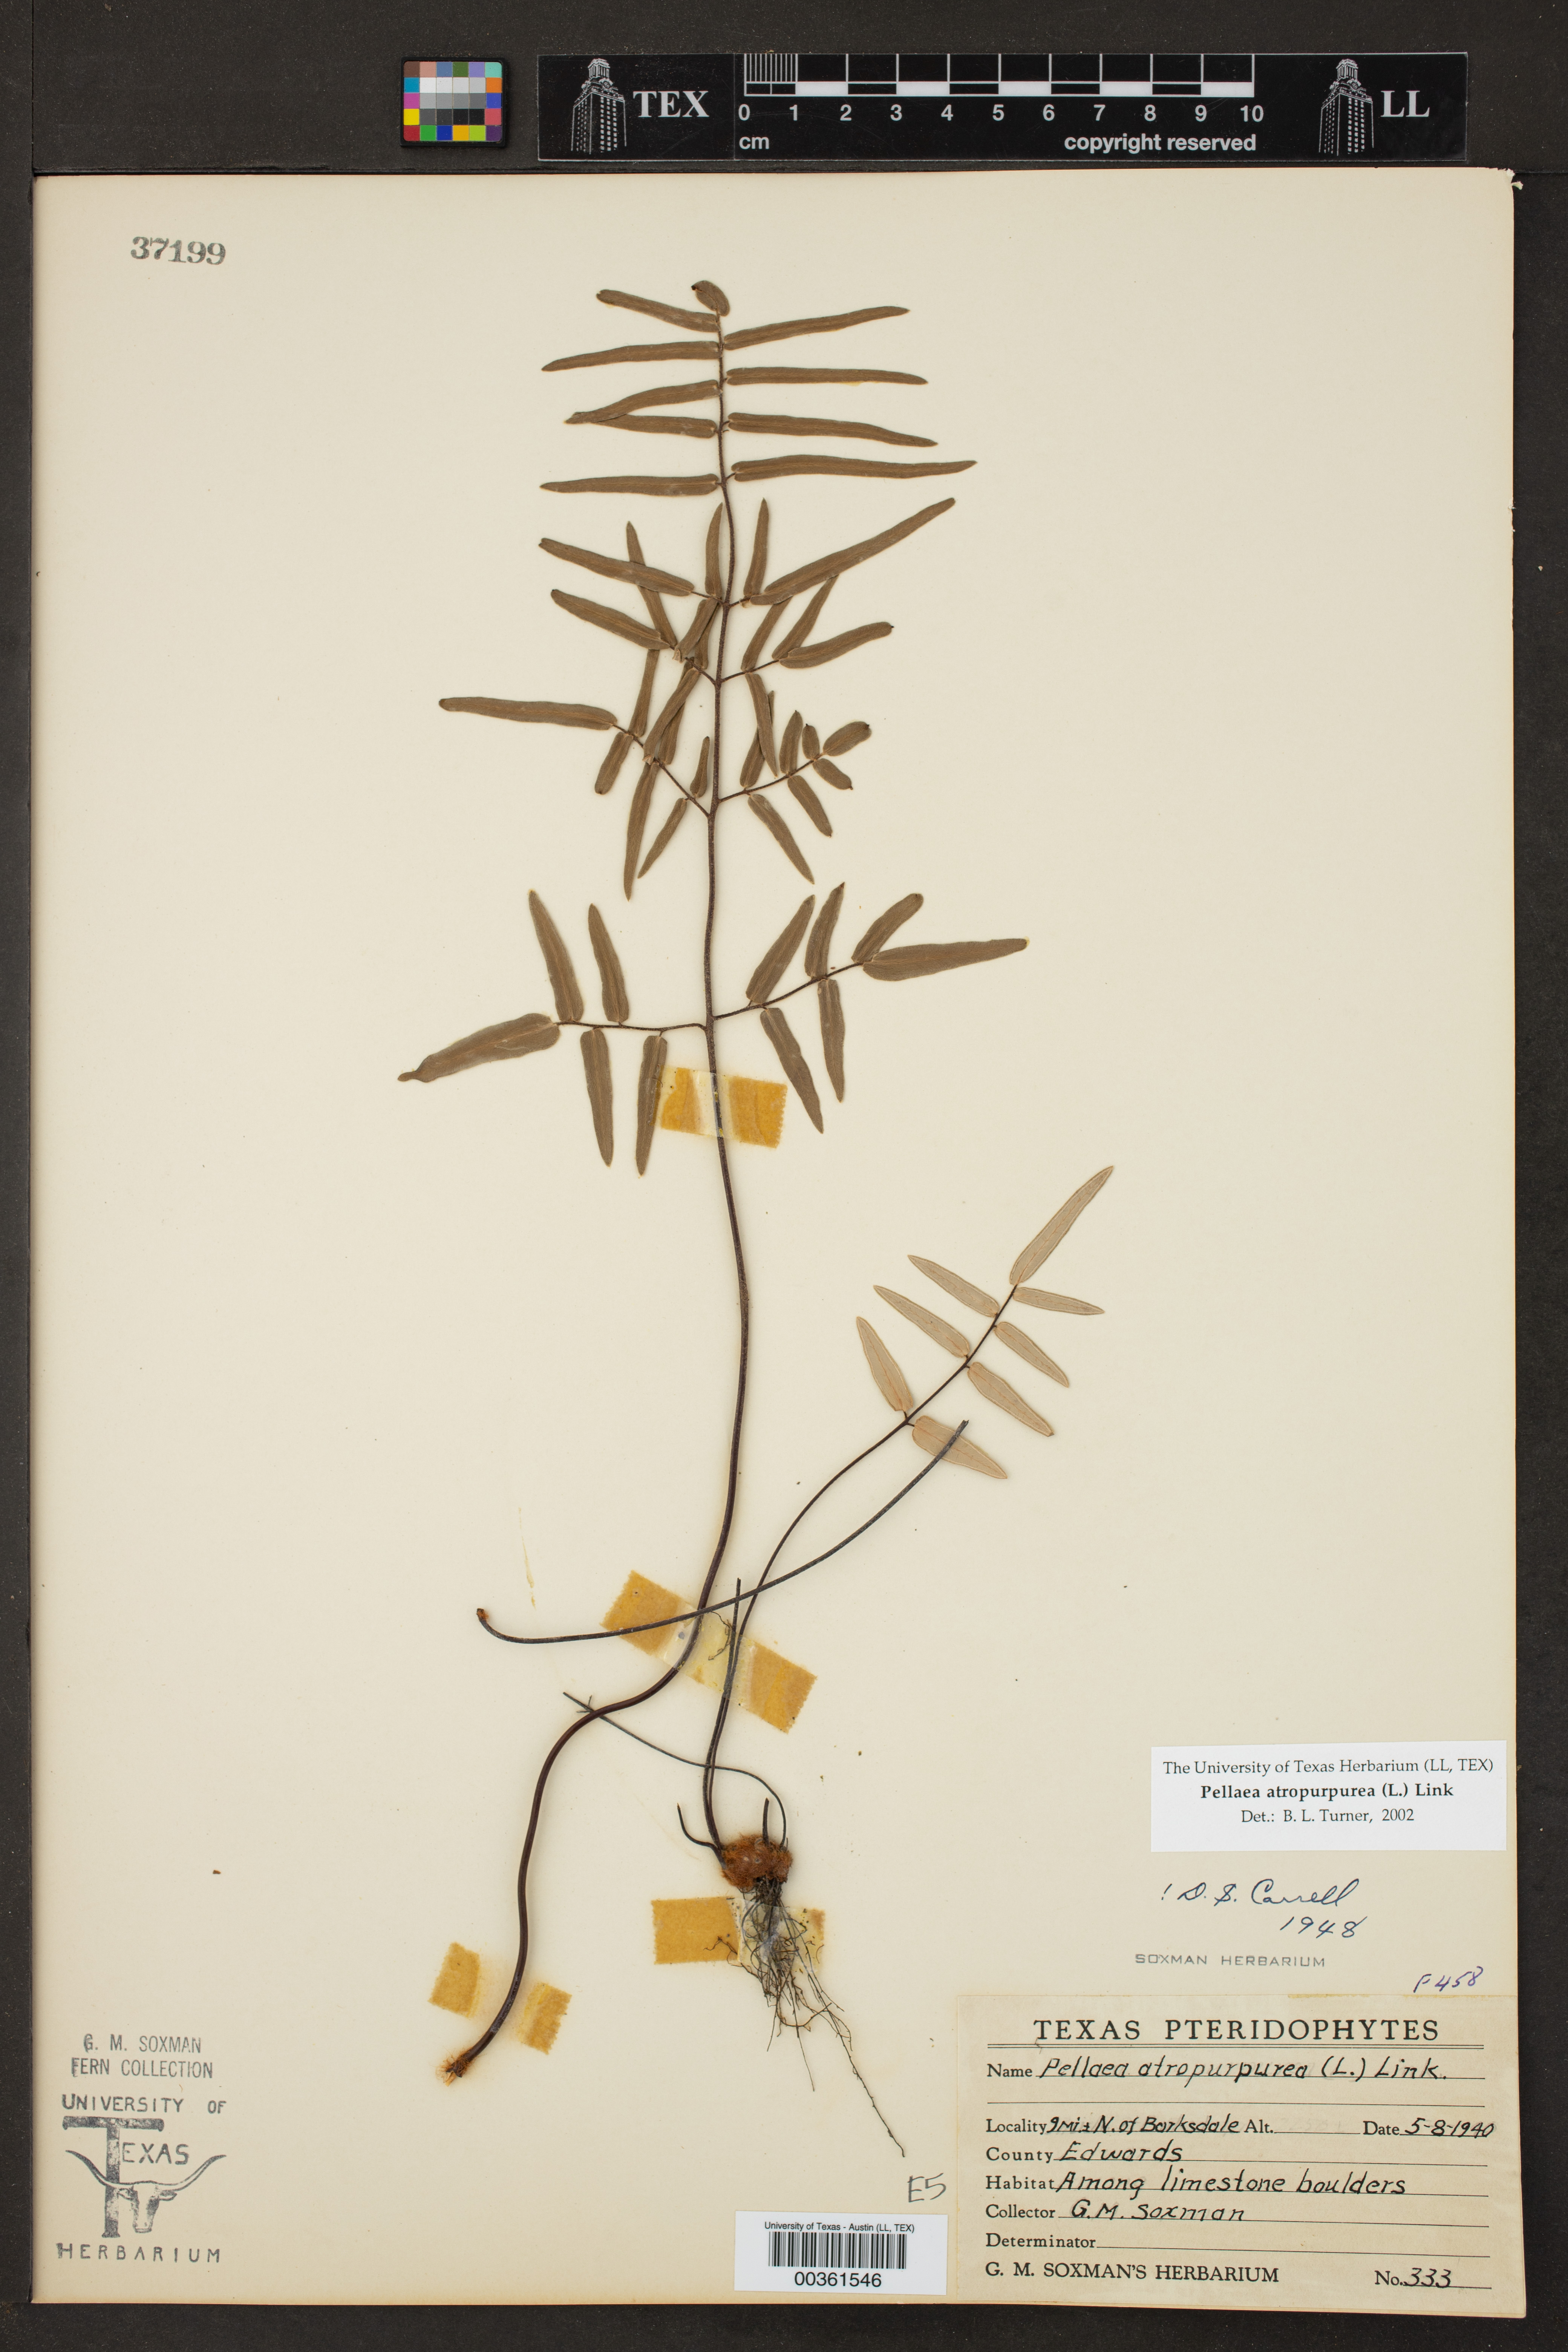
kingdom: Plantae
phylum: Tracheophyta
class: Polypodiopsida
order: Polypodiales
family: Pteridaceae
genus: Pellaea
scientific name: Pellaea atropurpurea
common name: Hairy cliffbrake
